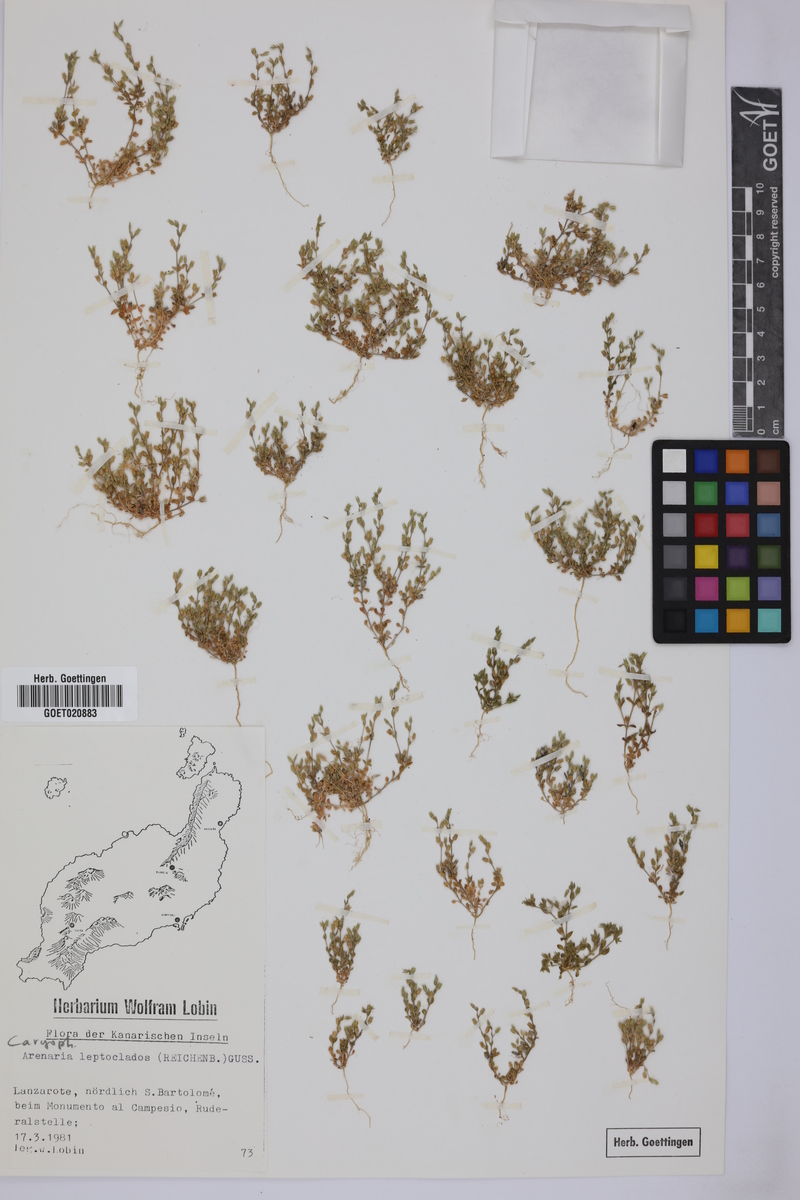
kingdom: Plantae
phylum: Tracheophyta
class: Magnoliopsida
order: Caryophyllales
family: Caryophyllaceae
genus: Arenaria
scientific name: Arenaria leptoclados
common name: Thyme-leaved sandwort
